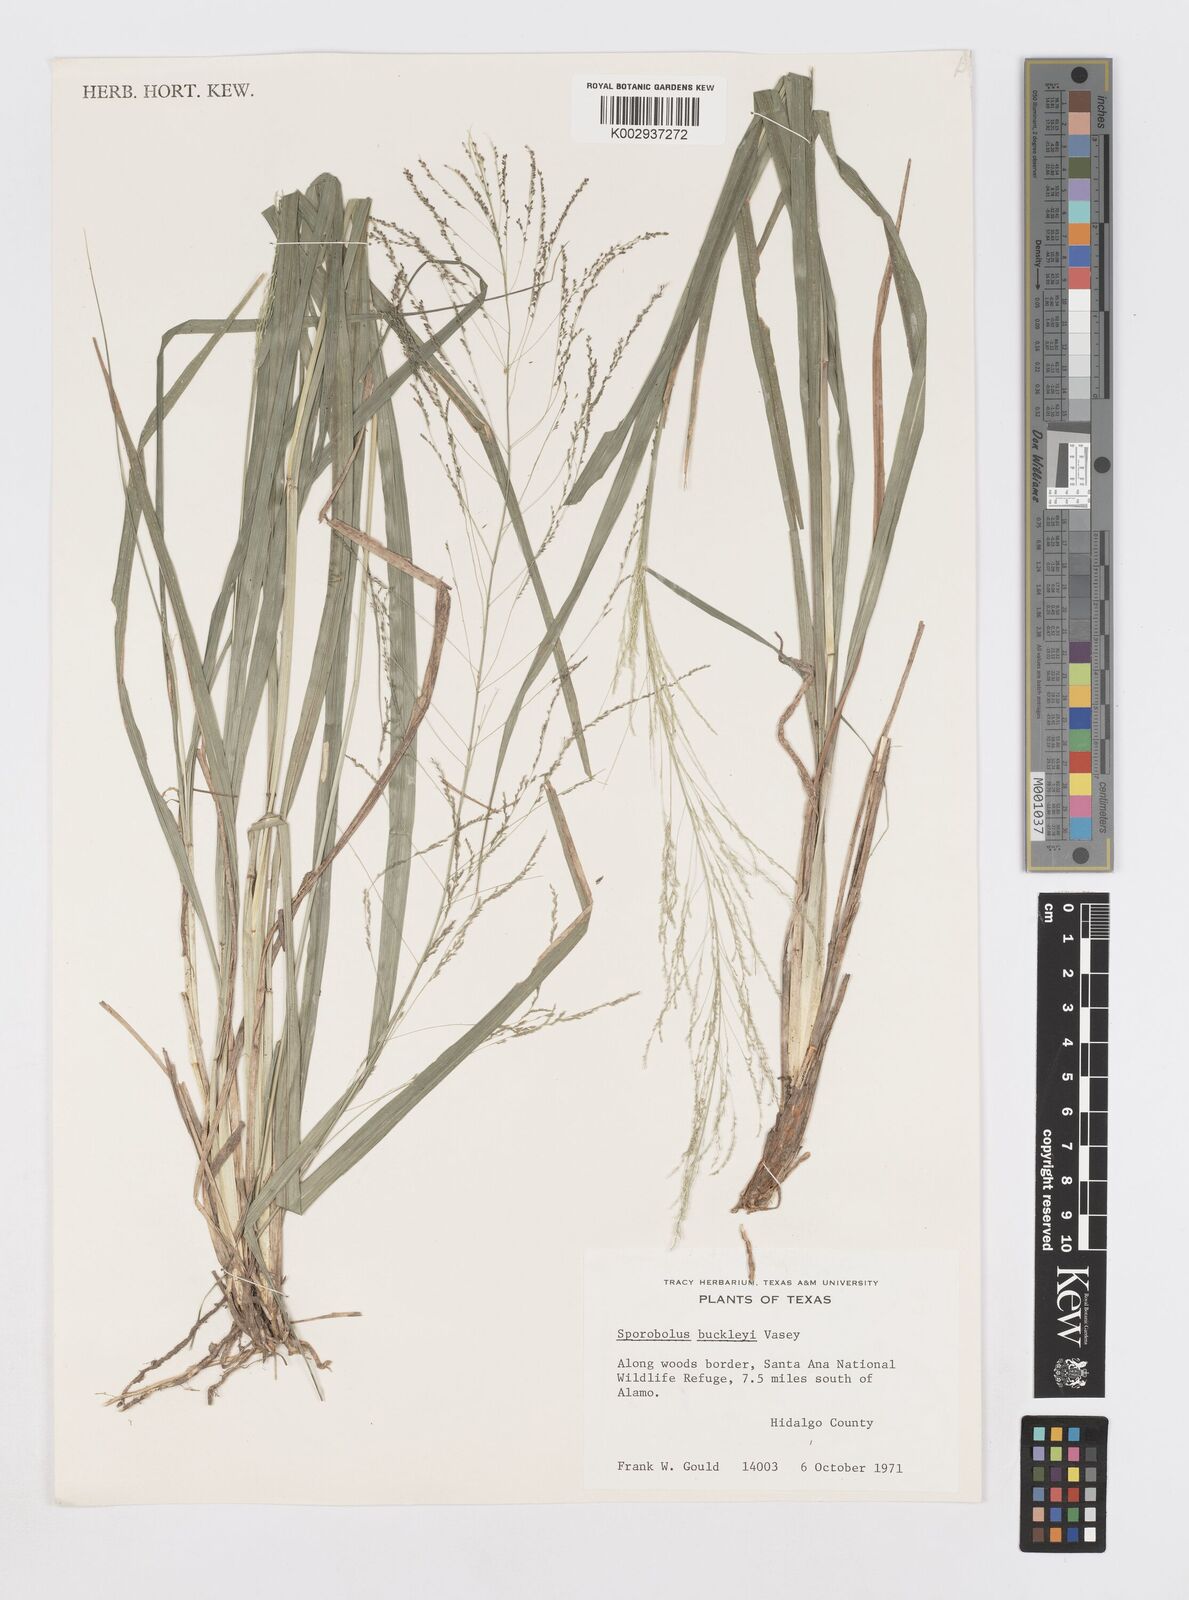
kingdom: Plantae
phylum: Tracheophyta
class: Liliopsida
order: Poales
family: Poaceae
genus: Sporobolus
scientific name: Sporobolus buckleyi
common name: Buckley's dropseed
